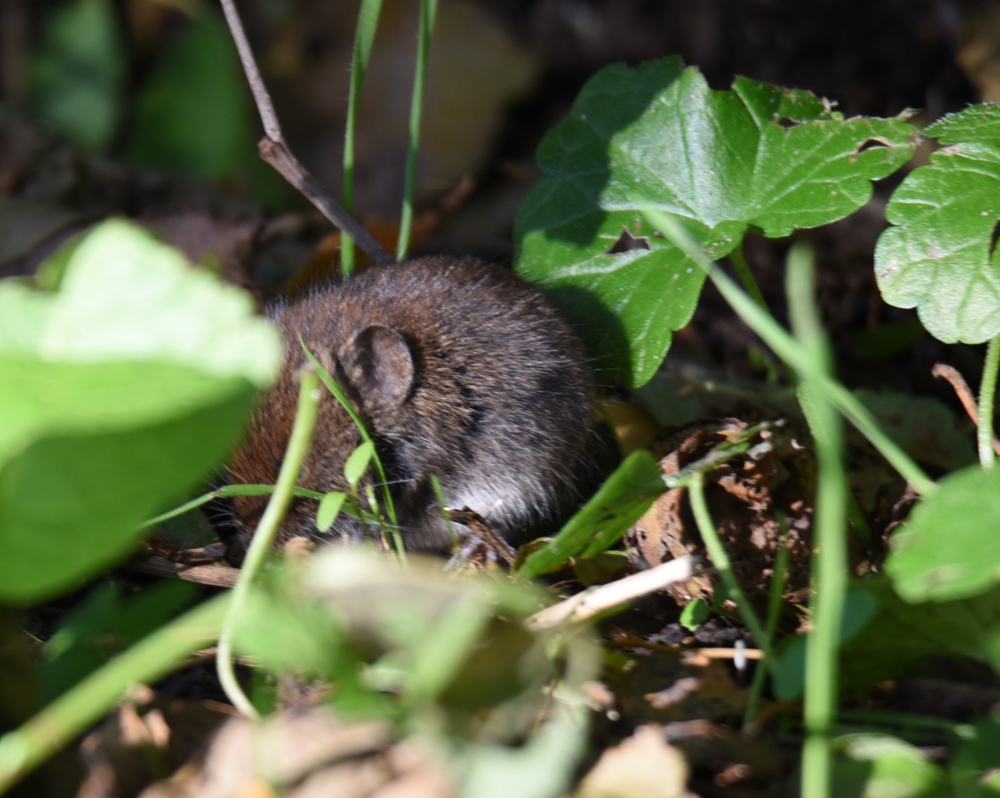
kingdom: Animalia
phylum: Chordata
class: Mammalia
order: Rodentia
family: Cricetidae
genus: Myodes
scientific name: Myodes glareolus
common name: Bank vole
